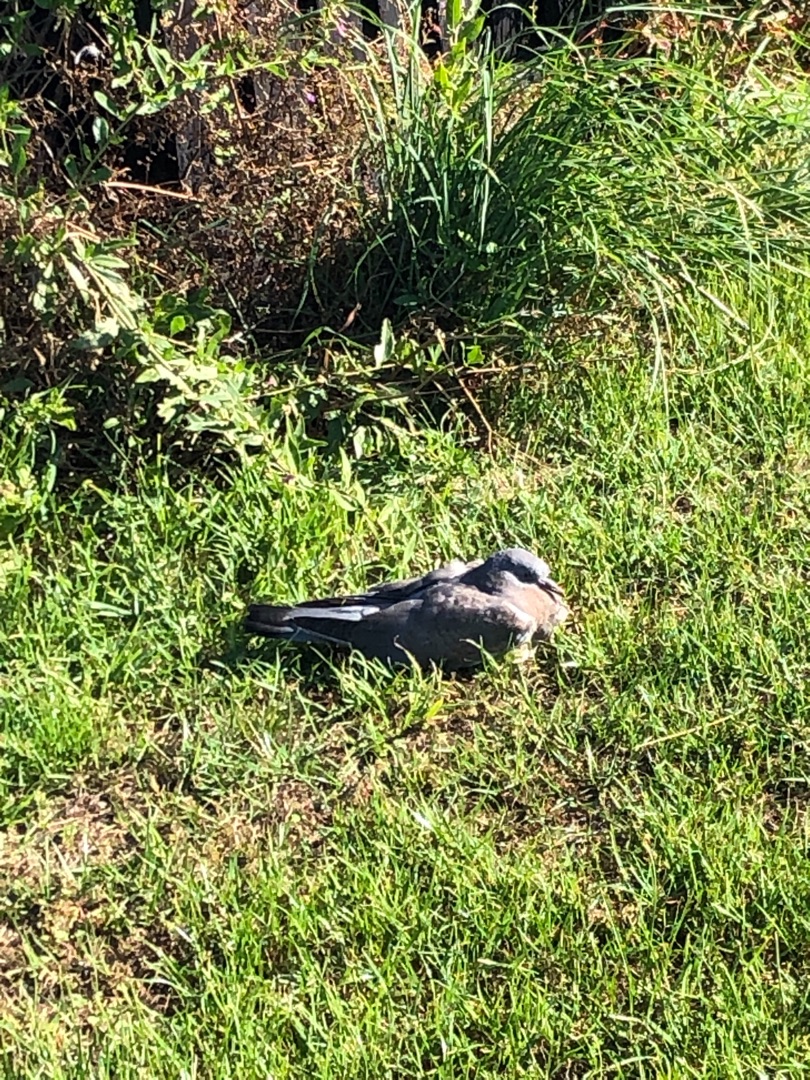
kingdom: Animalia
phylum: Chordata
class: Aves
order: Columbiformes
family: Columbidae
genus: Columba
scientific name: Columba palumbus
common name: Ringdue
